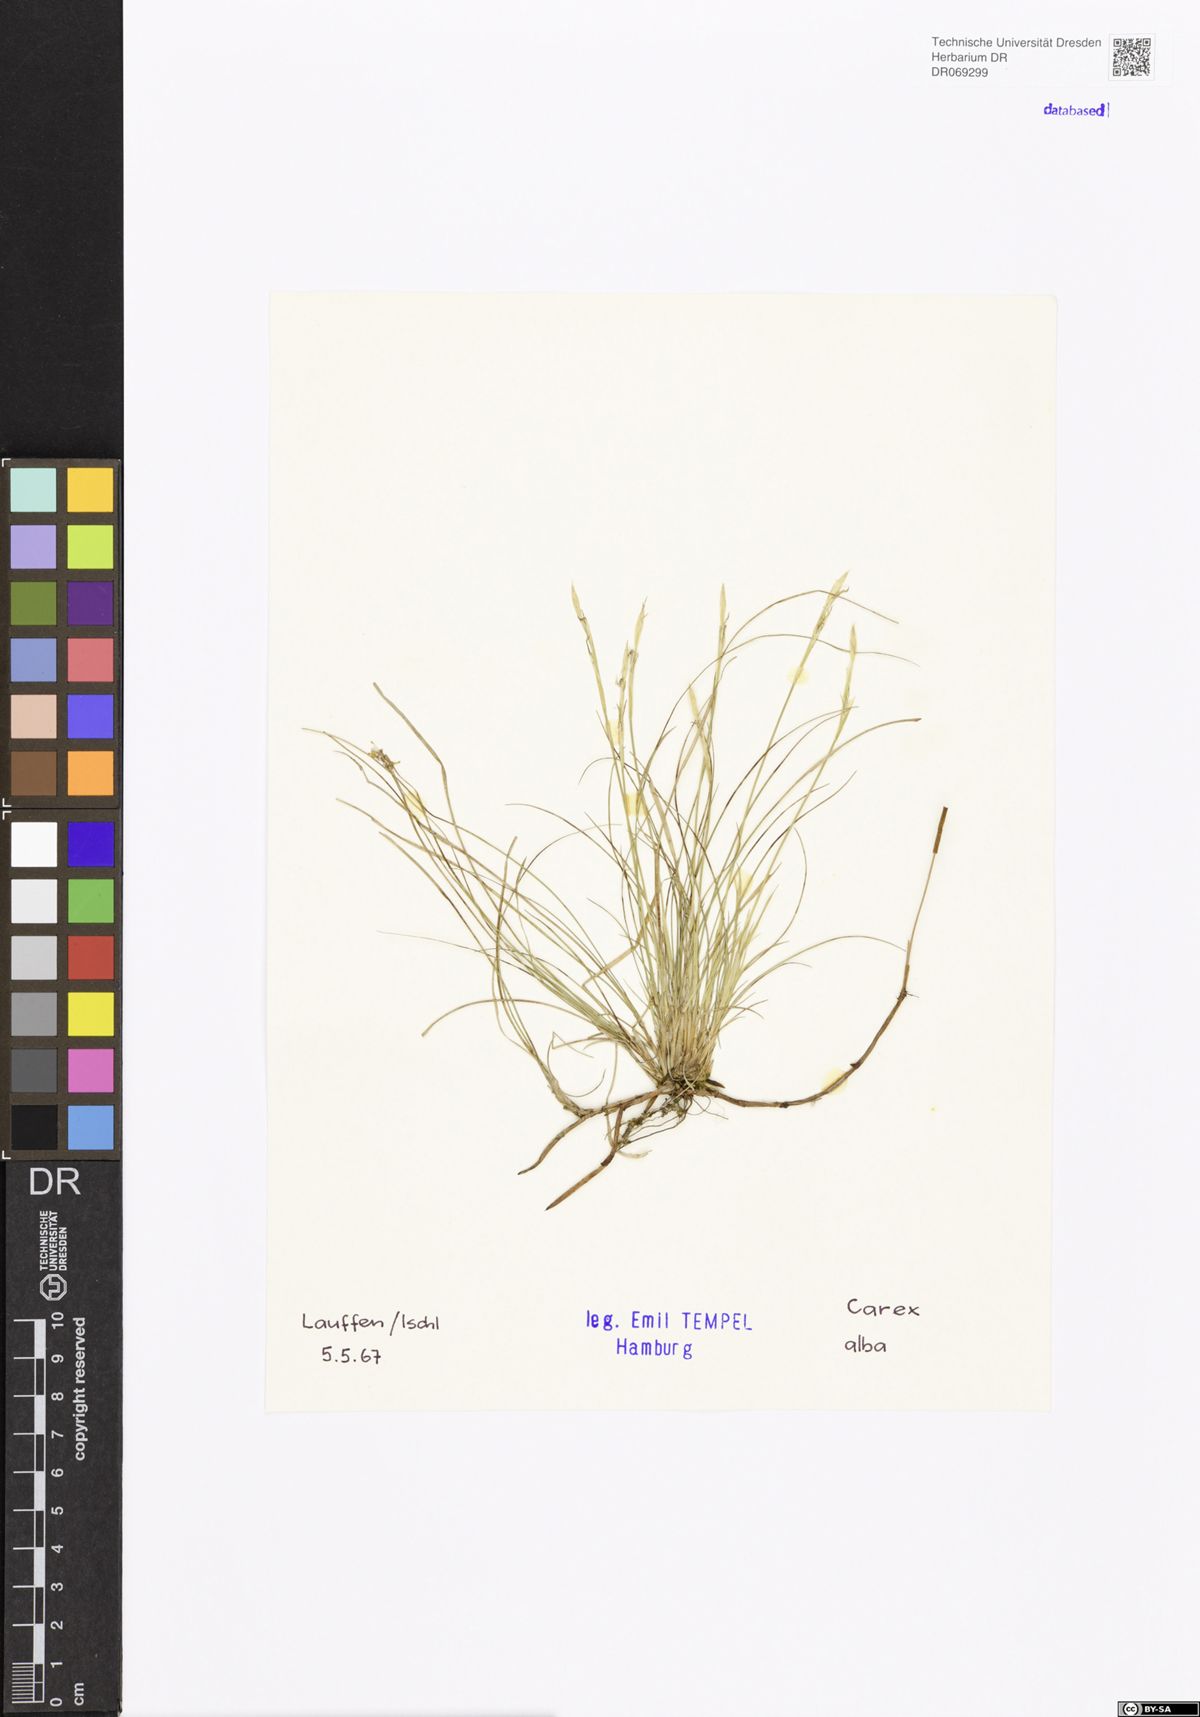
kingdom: Plantae
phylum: Tracheophyta
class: Liliopsida
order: Poales
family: Cyperaceae
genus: Carex
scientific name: Carex alba
